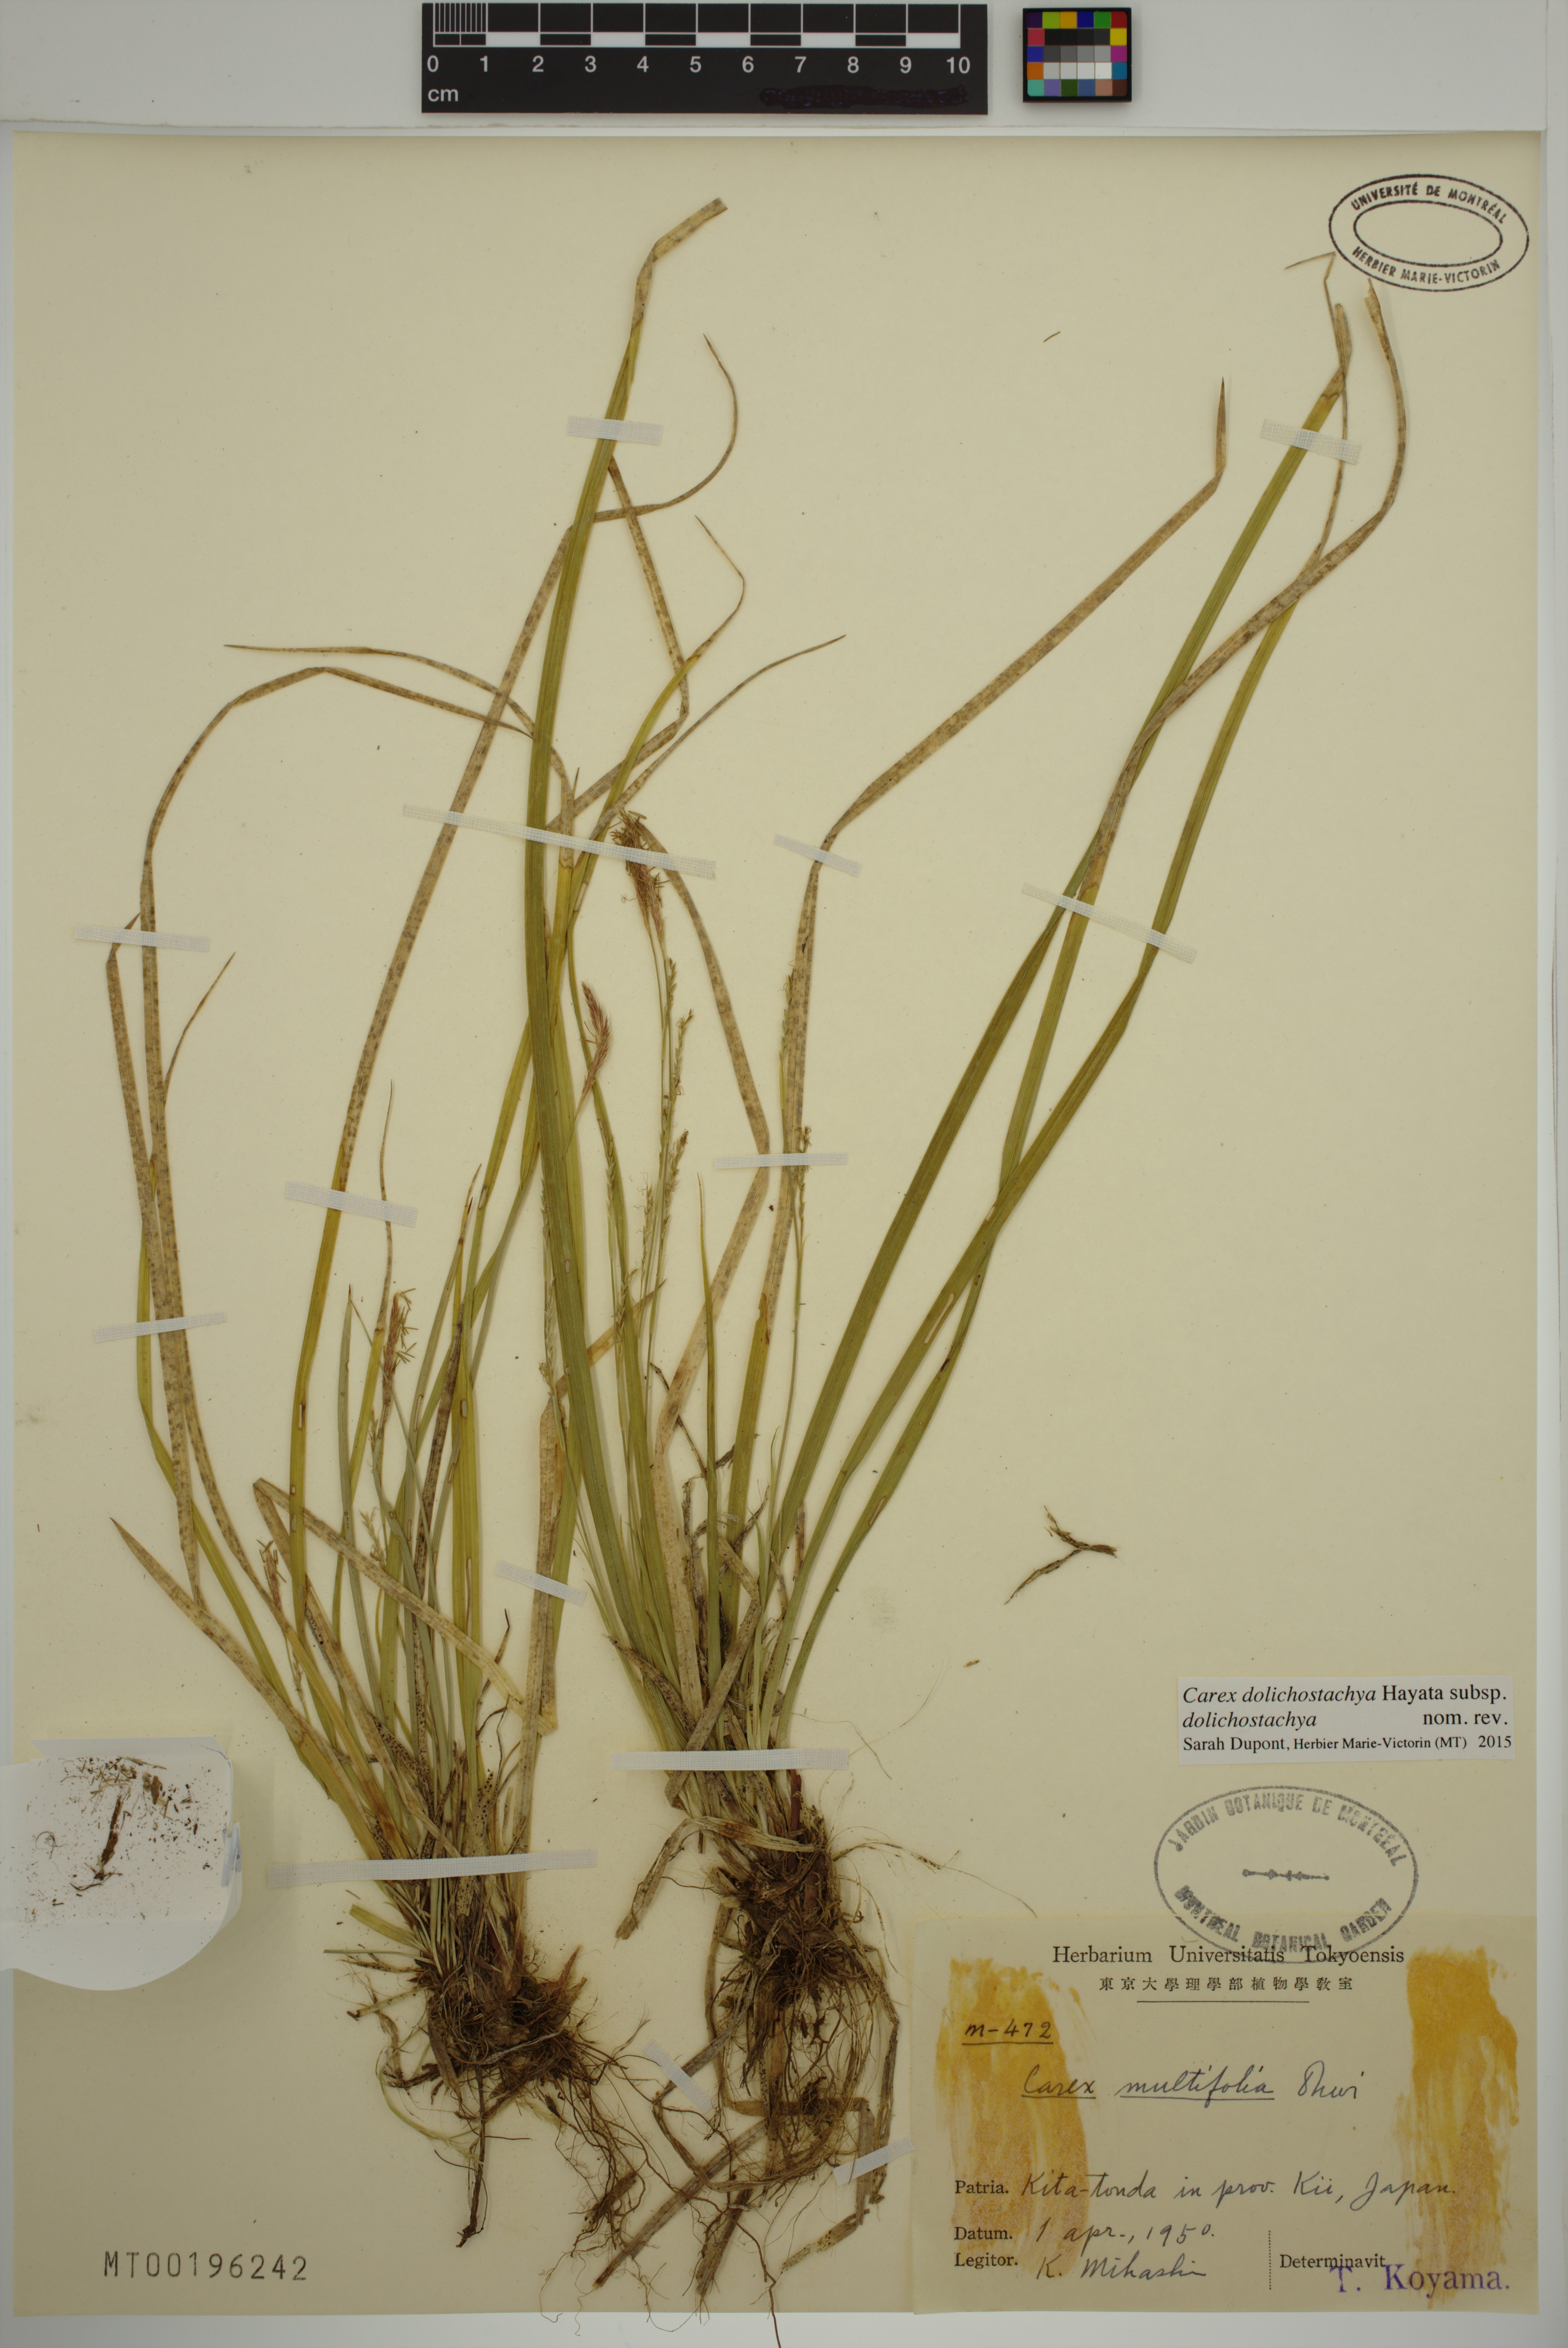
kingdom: Plantae
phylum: Tracheophyta
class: Liliopsida
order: Poales
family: Cyperaceae
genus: Carex
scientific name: Carex dolichostachya
